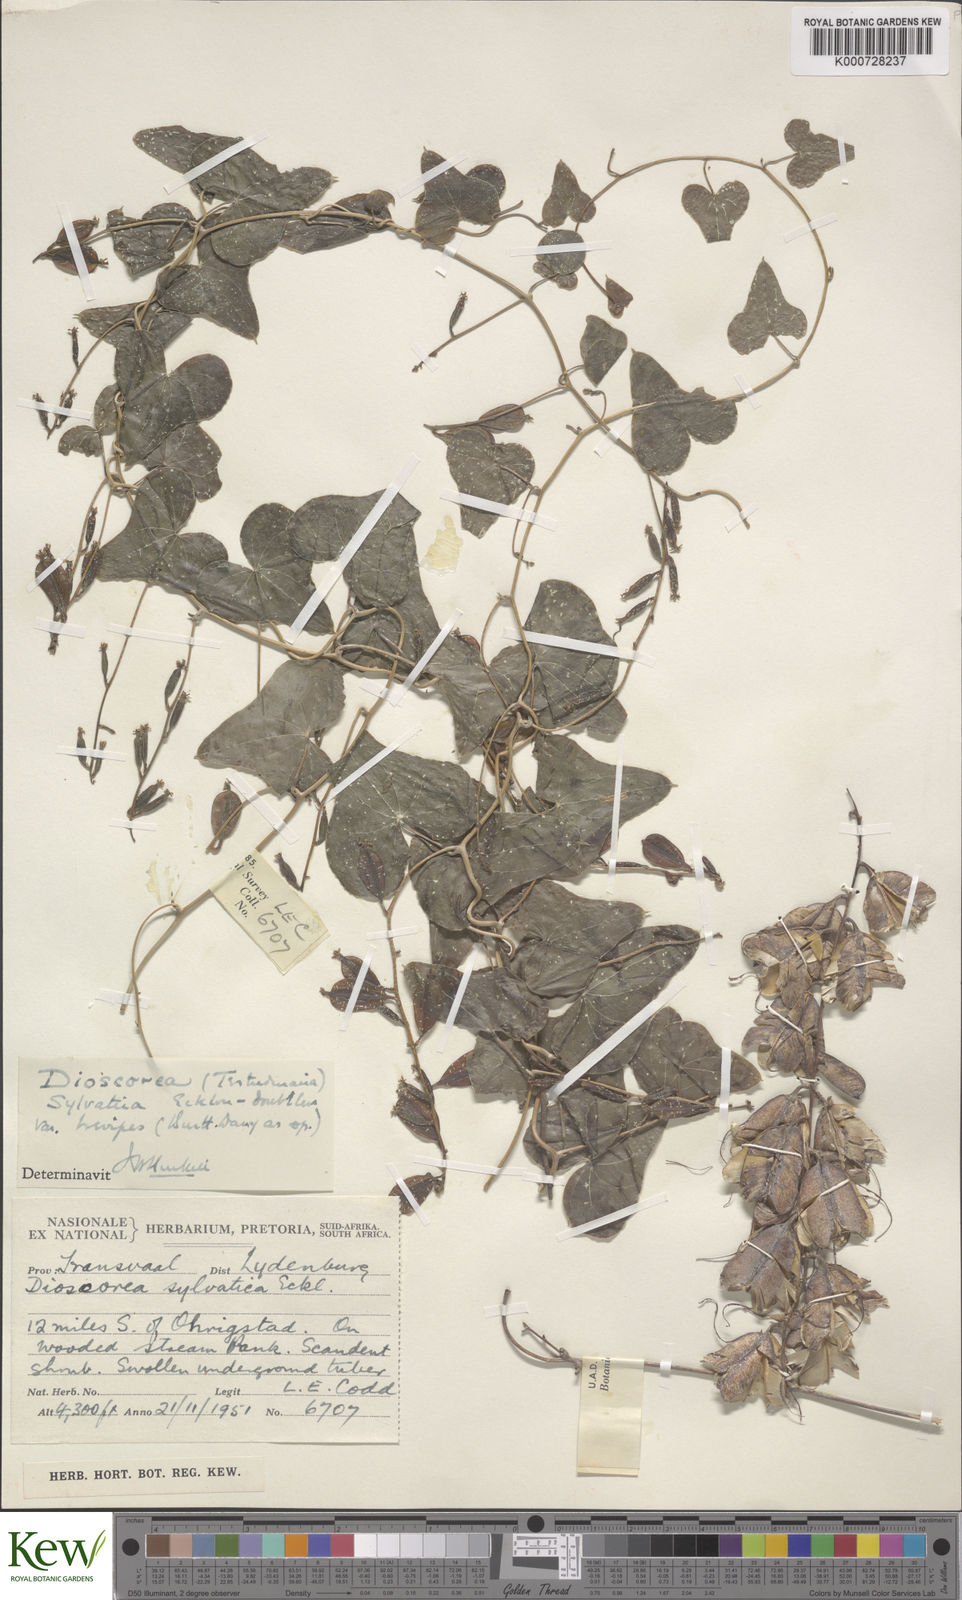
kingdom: Plantae
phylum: Tracheophyta
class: Liliopsida
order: Dioscoreales
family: Dioscoreaceae
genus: Dioscorea
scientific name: Dioscorea sylvatica
